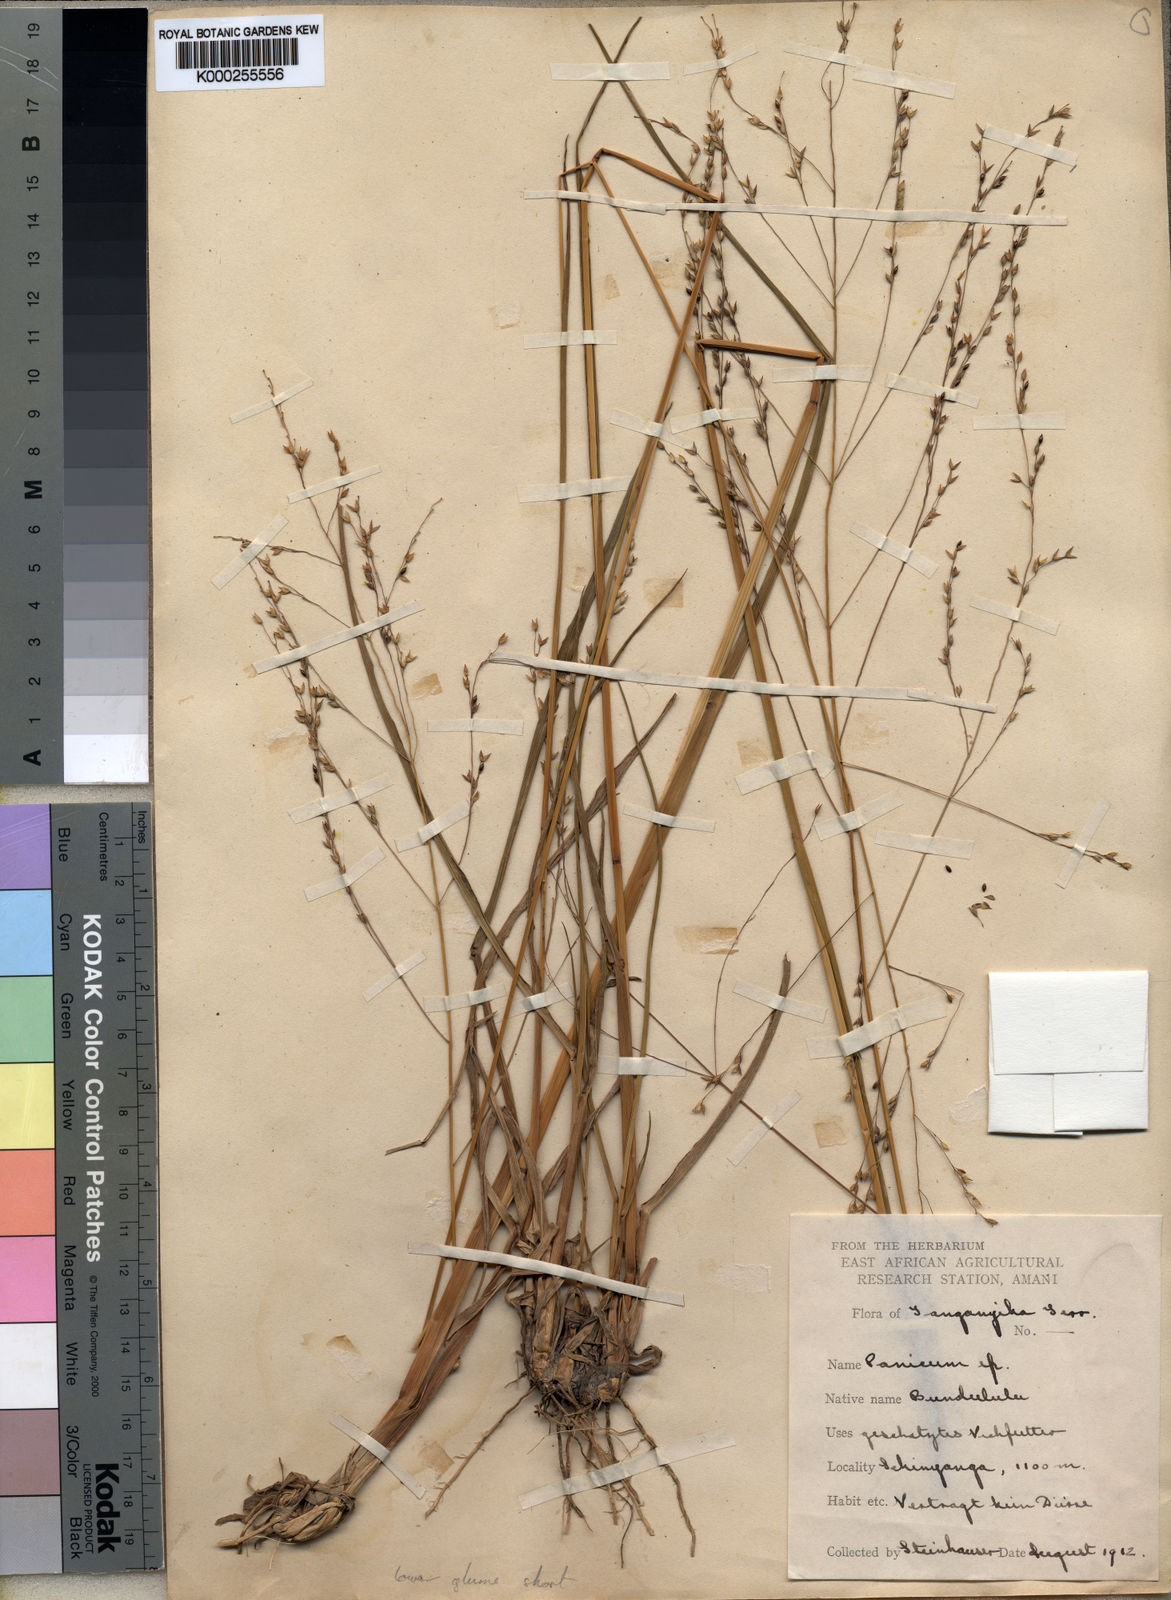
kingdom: Plantae
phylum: Tracheophyta
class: Liliopsida
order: Poales
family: Poaceae
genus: Panicum
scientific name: Panicum shinyangense
